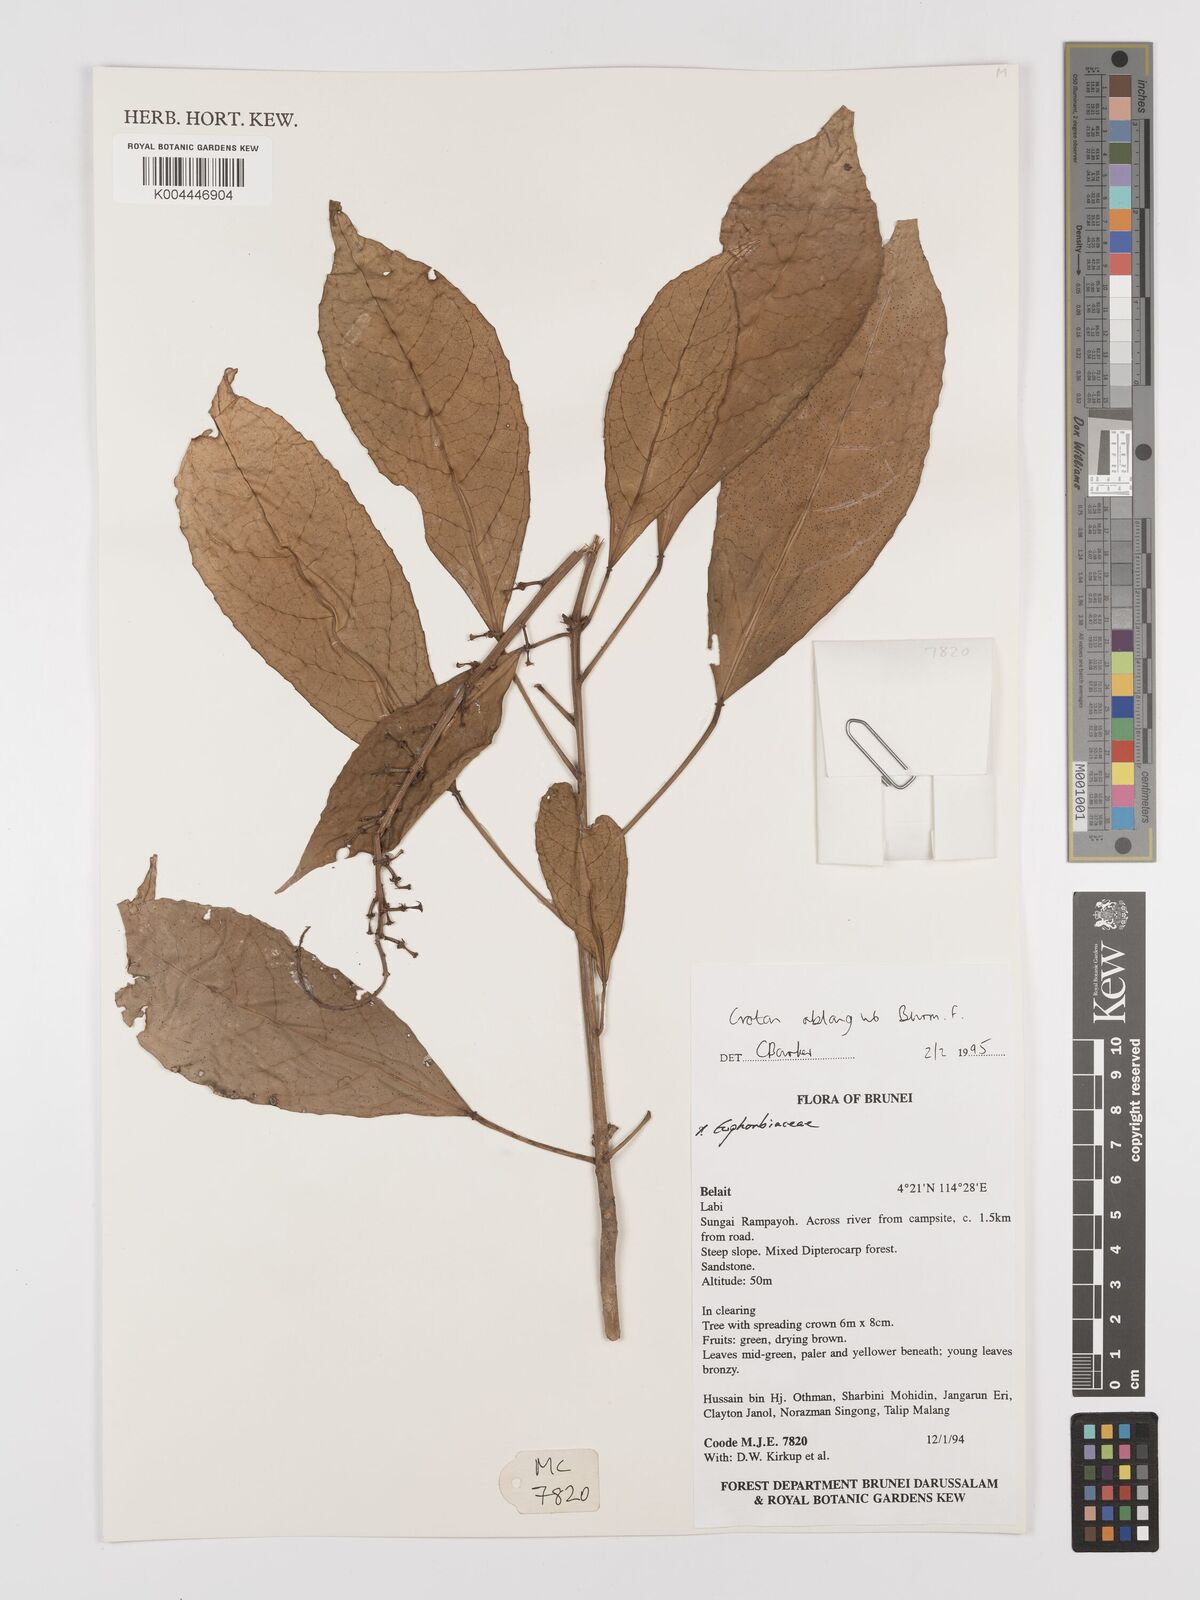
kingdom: Plantae
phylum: Tracheophyta
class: Magnoliopsida
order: Malpighiales
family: Euphorbiaceae
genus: Croton
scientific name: Croton oblongus
